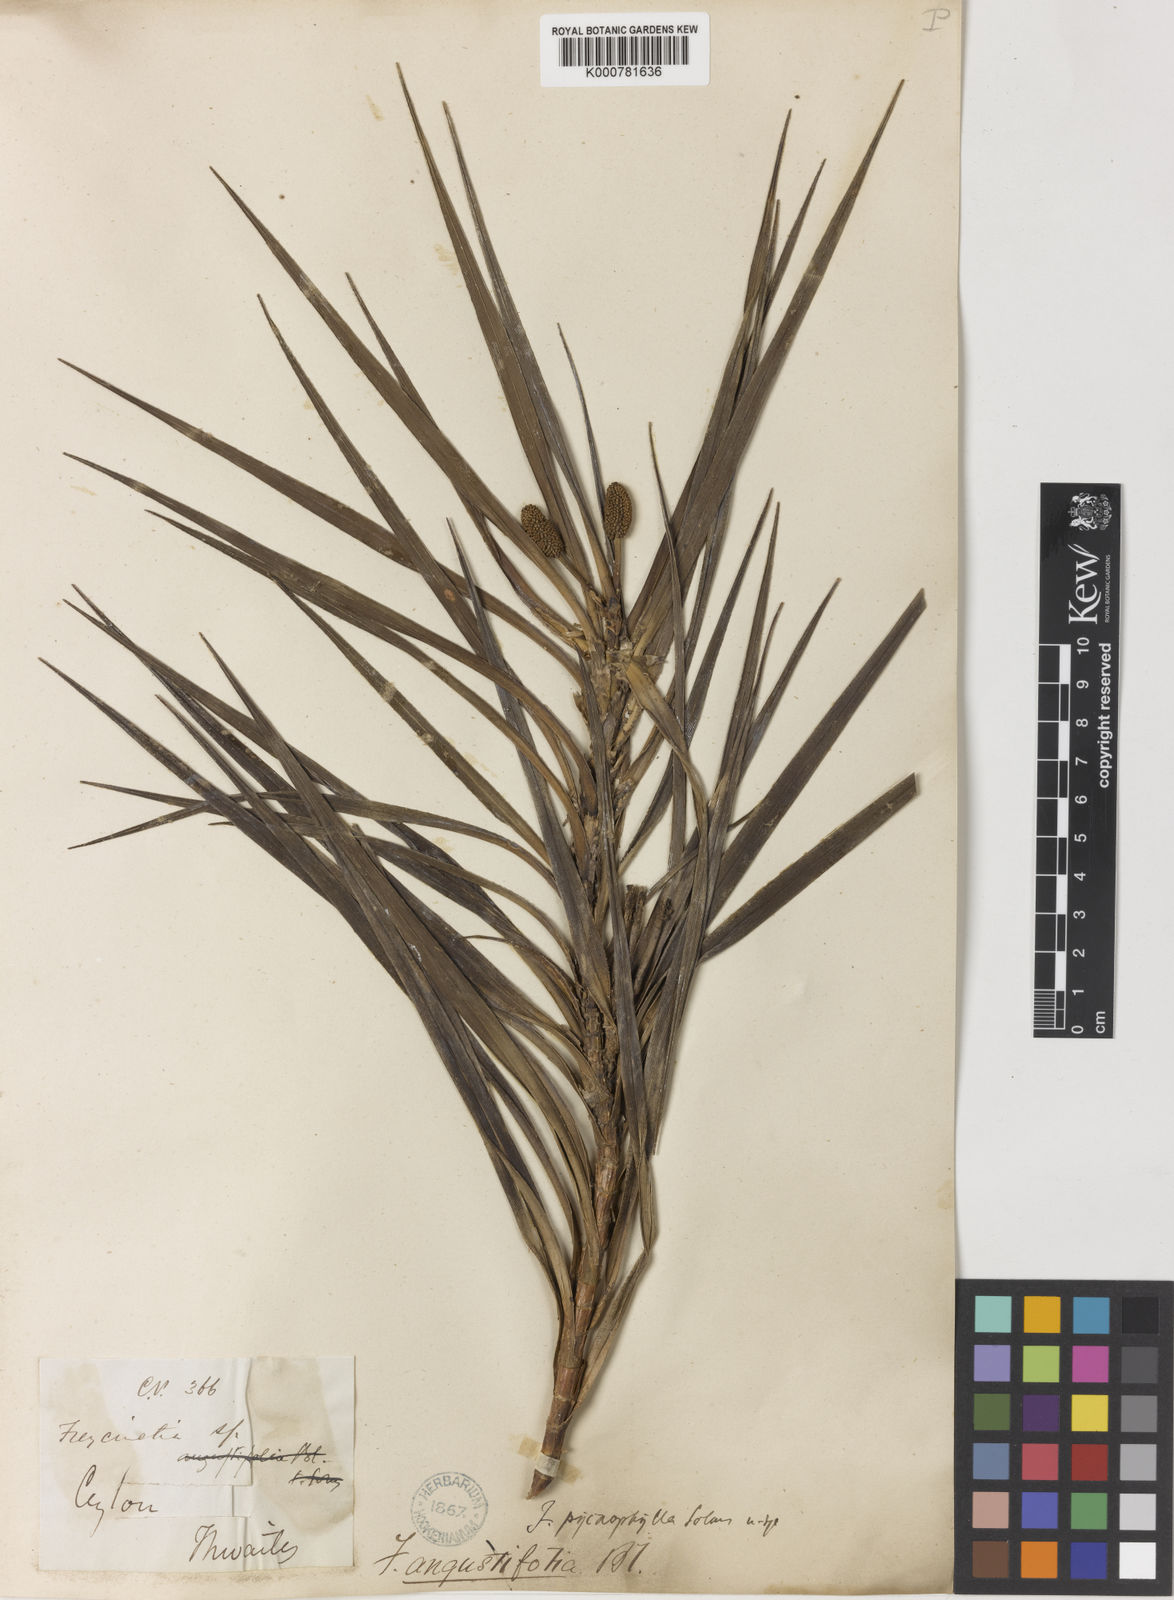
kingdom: Plantae
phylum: Tracheophyta
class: Liliopsida
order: Pandanales
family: Pandanaceae
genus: Freycinetia
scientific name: Freycinetia pycnophylla
